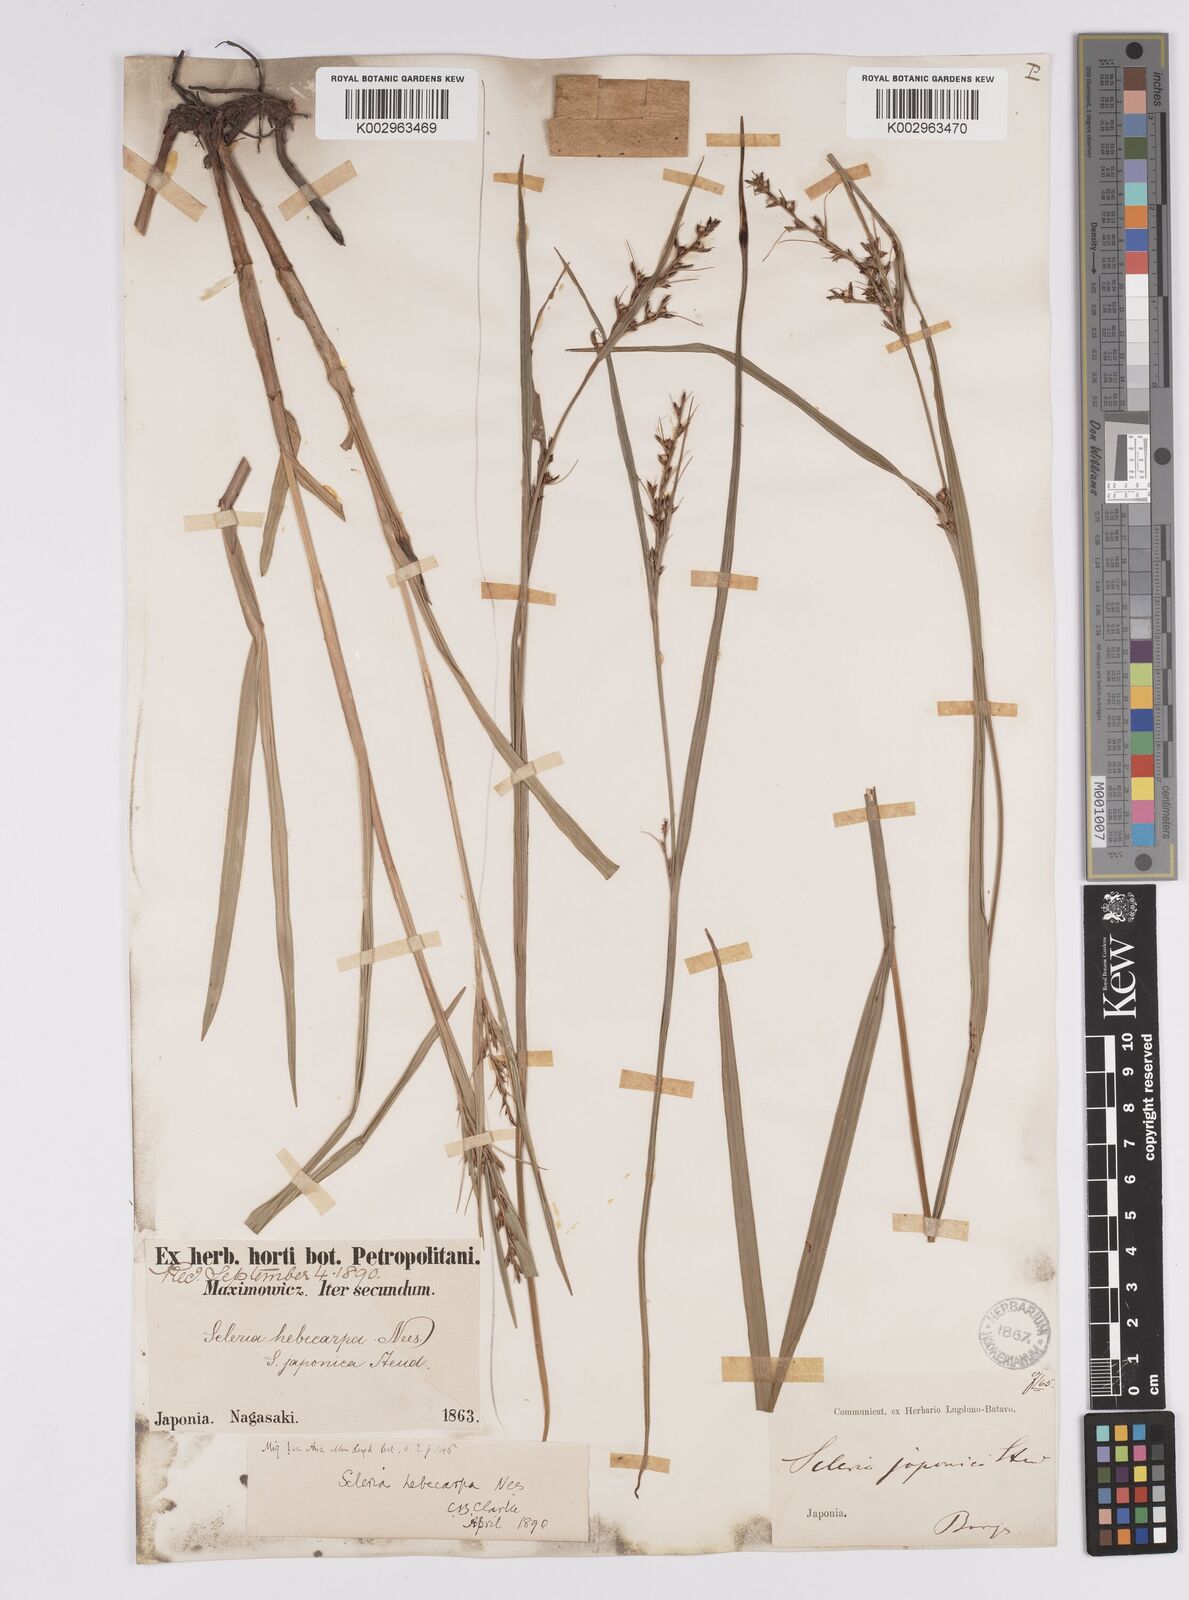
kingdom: Plantae
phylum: Tracheophyta
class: Liliopsida
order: Poales
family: Cyperaceae
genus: Scleria
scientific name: Scleria levis
